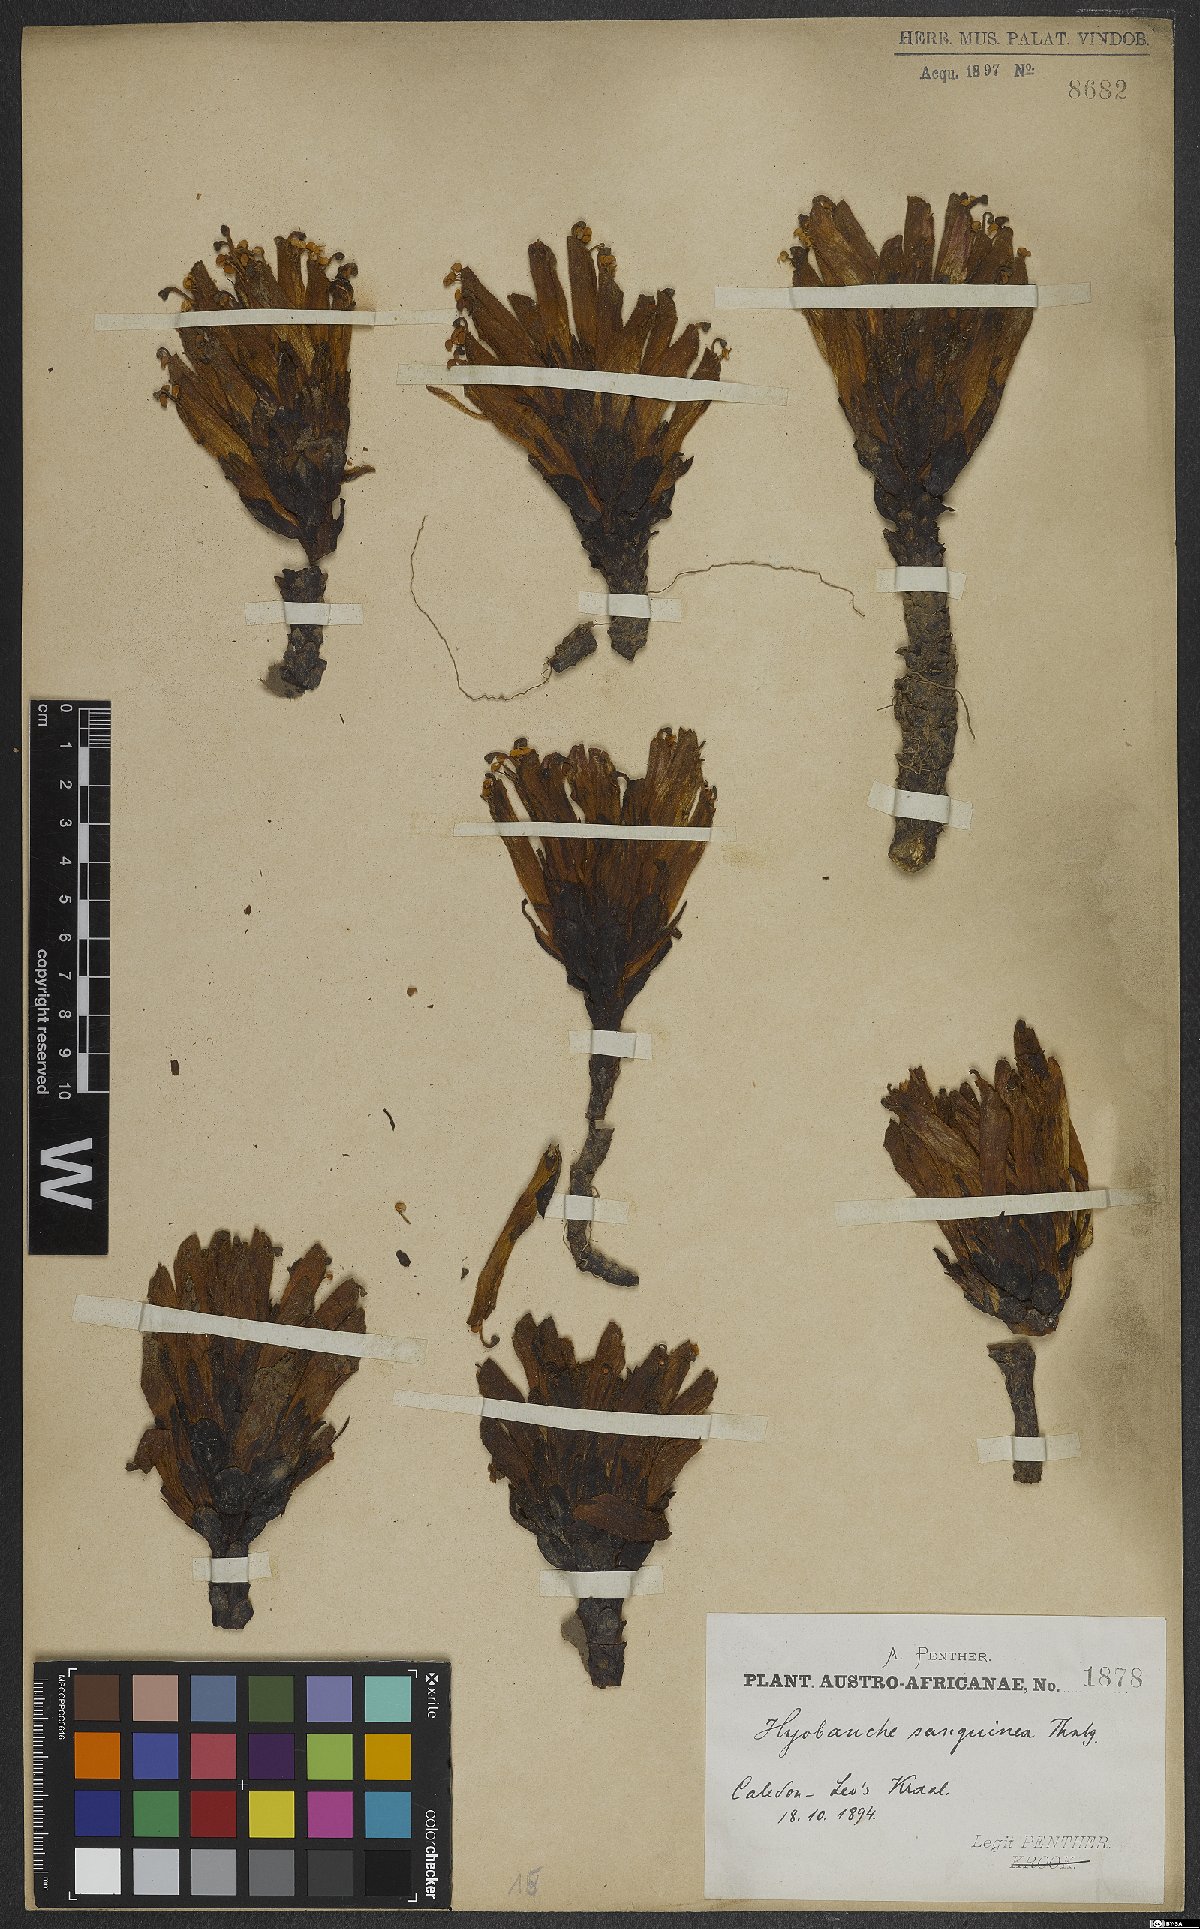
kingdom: Plantae
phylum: Tracheophyta
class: Magnoliopsida
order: Lamiales
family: Orobanchaceae
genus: Hyobanche
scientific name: Hyobanche sanguinea
